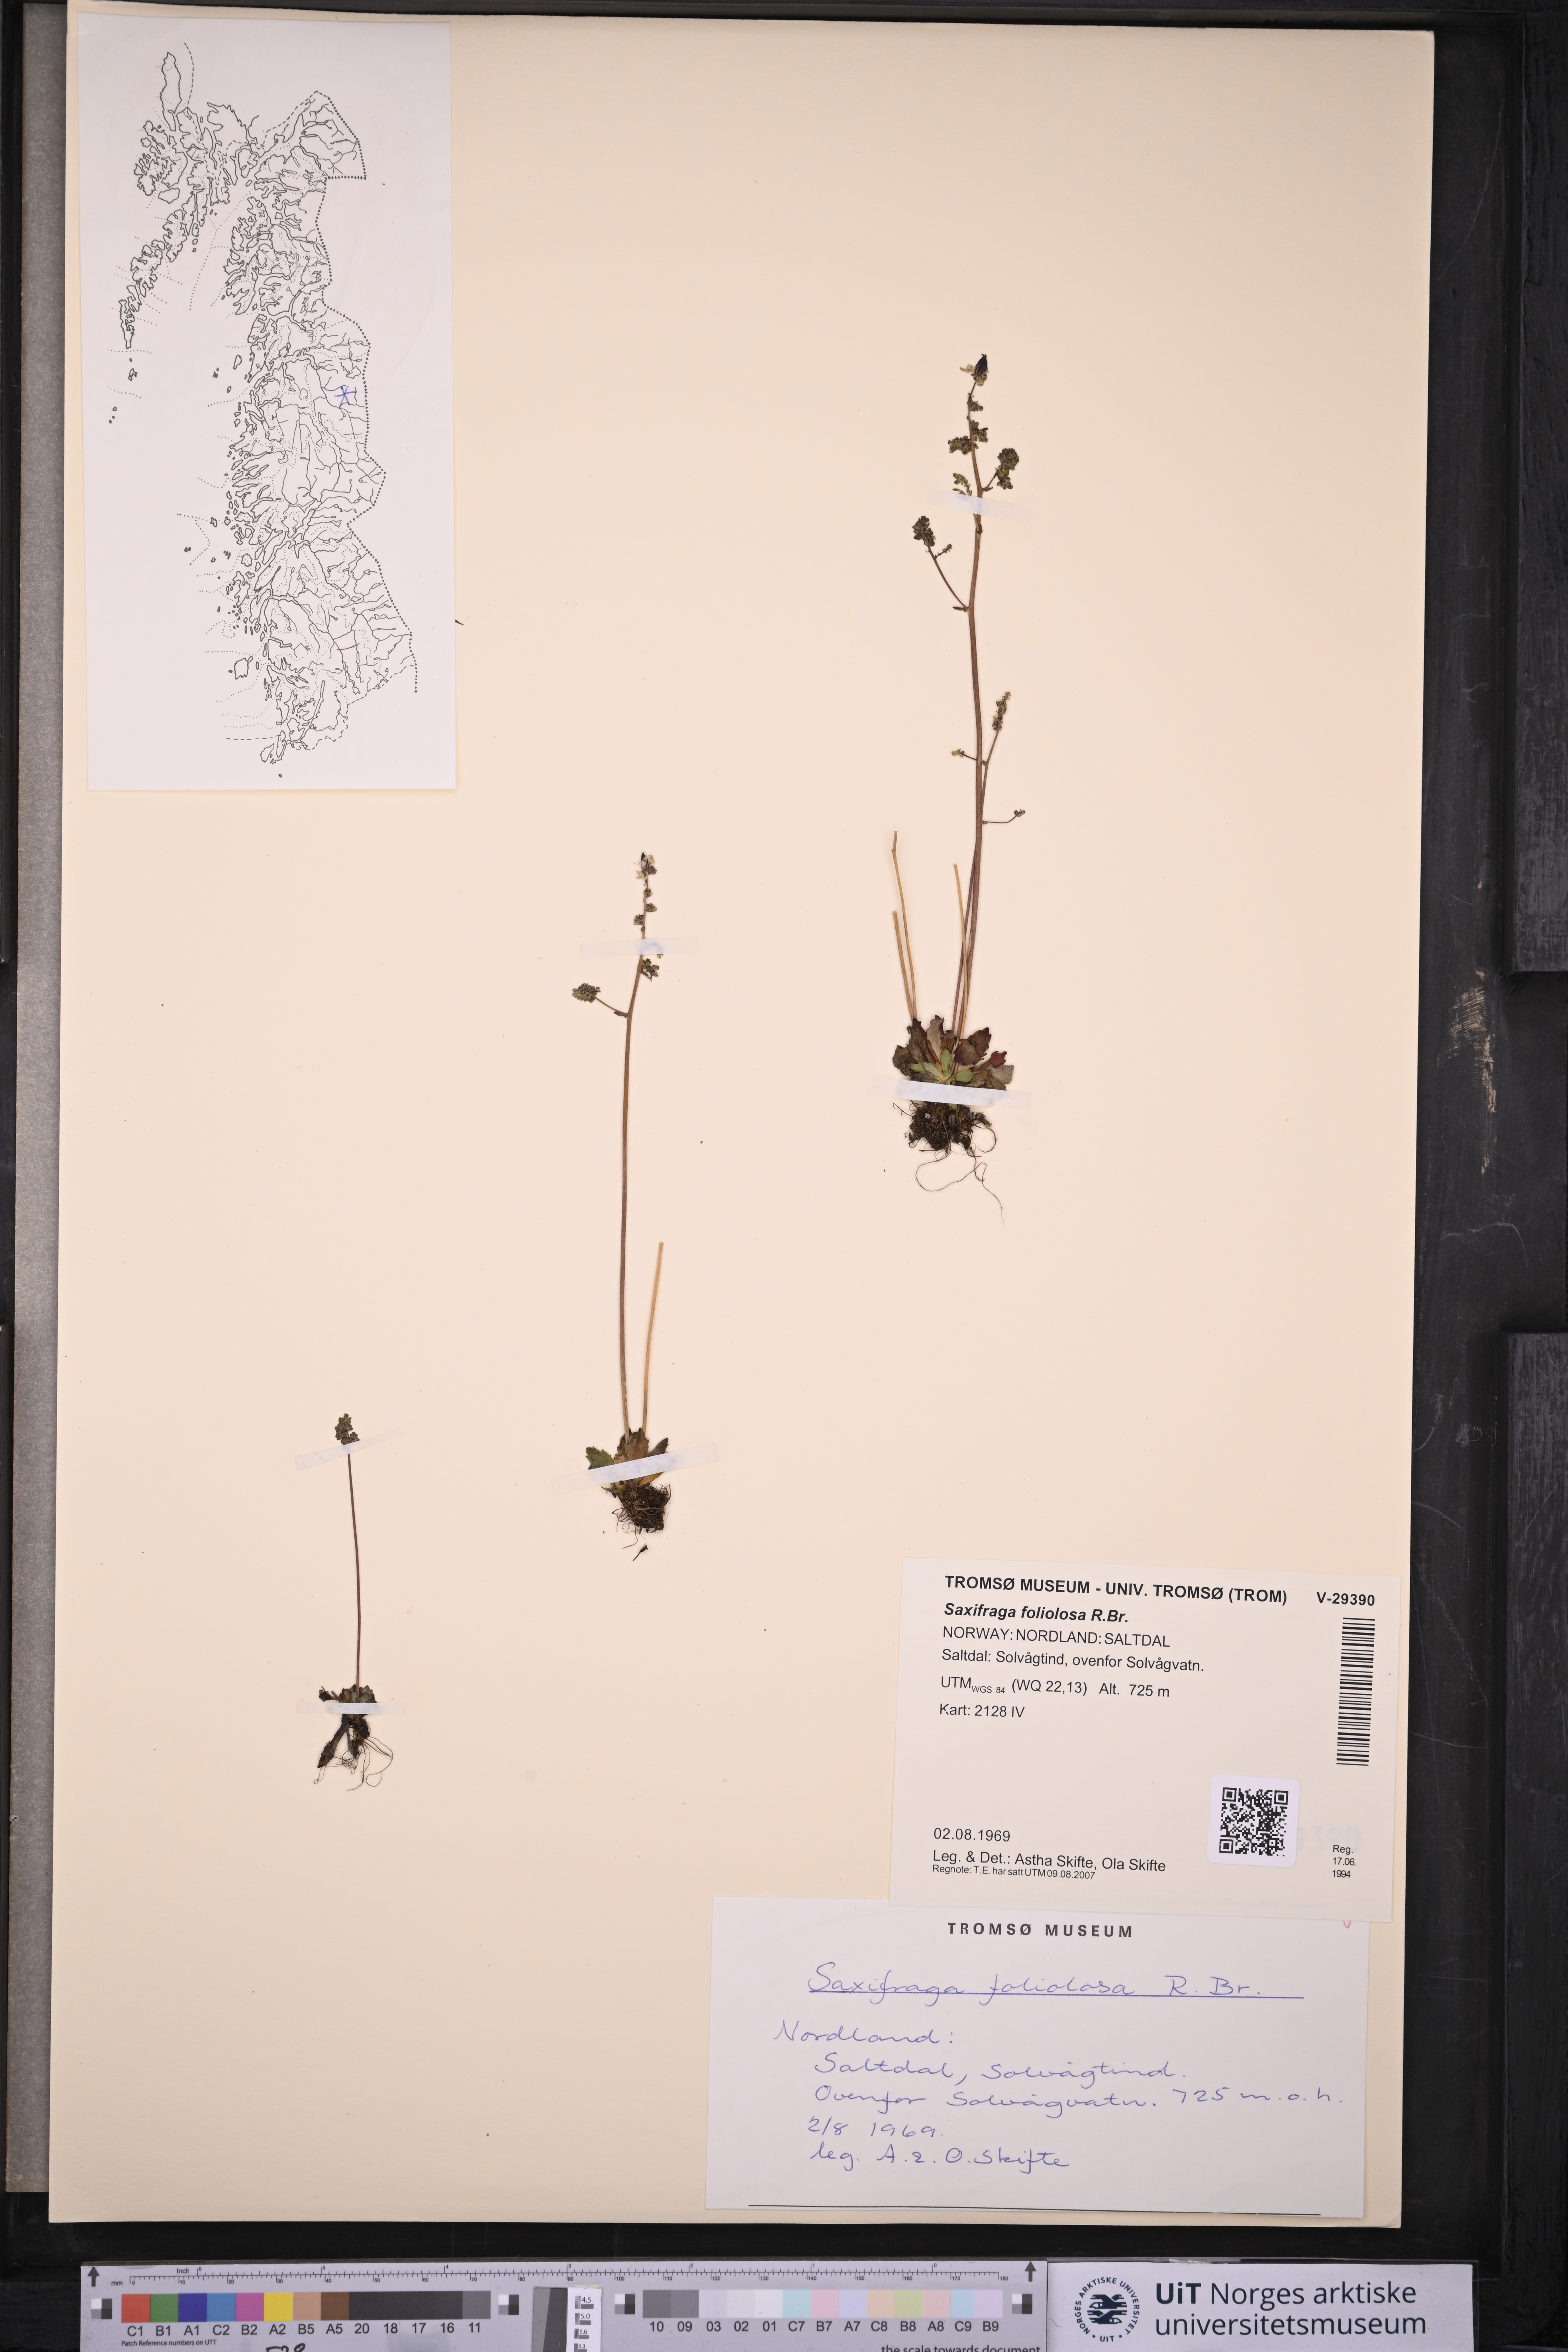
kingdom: Plantae
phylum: Tracheophyta
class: Magnoliopsida
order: Saxifragales
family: Saxifragaceae
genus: Micranthes
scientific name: Micranthes foliolosa
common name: Leafystem saxifrage
